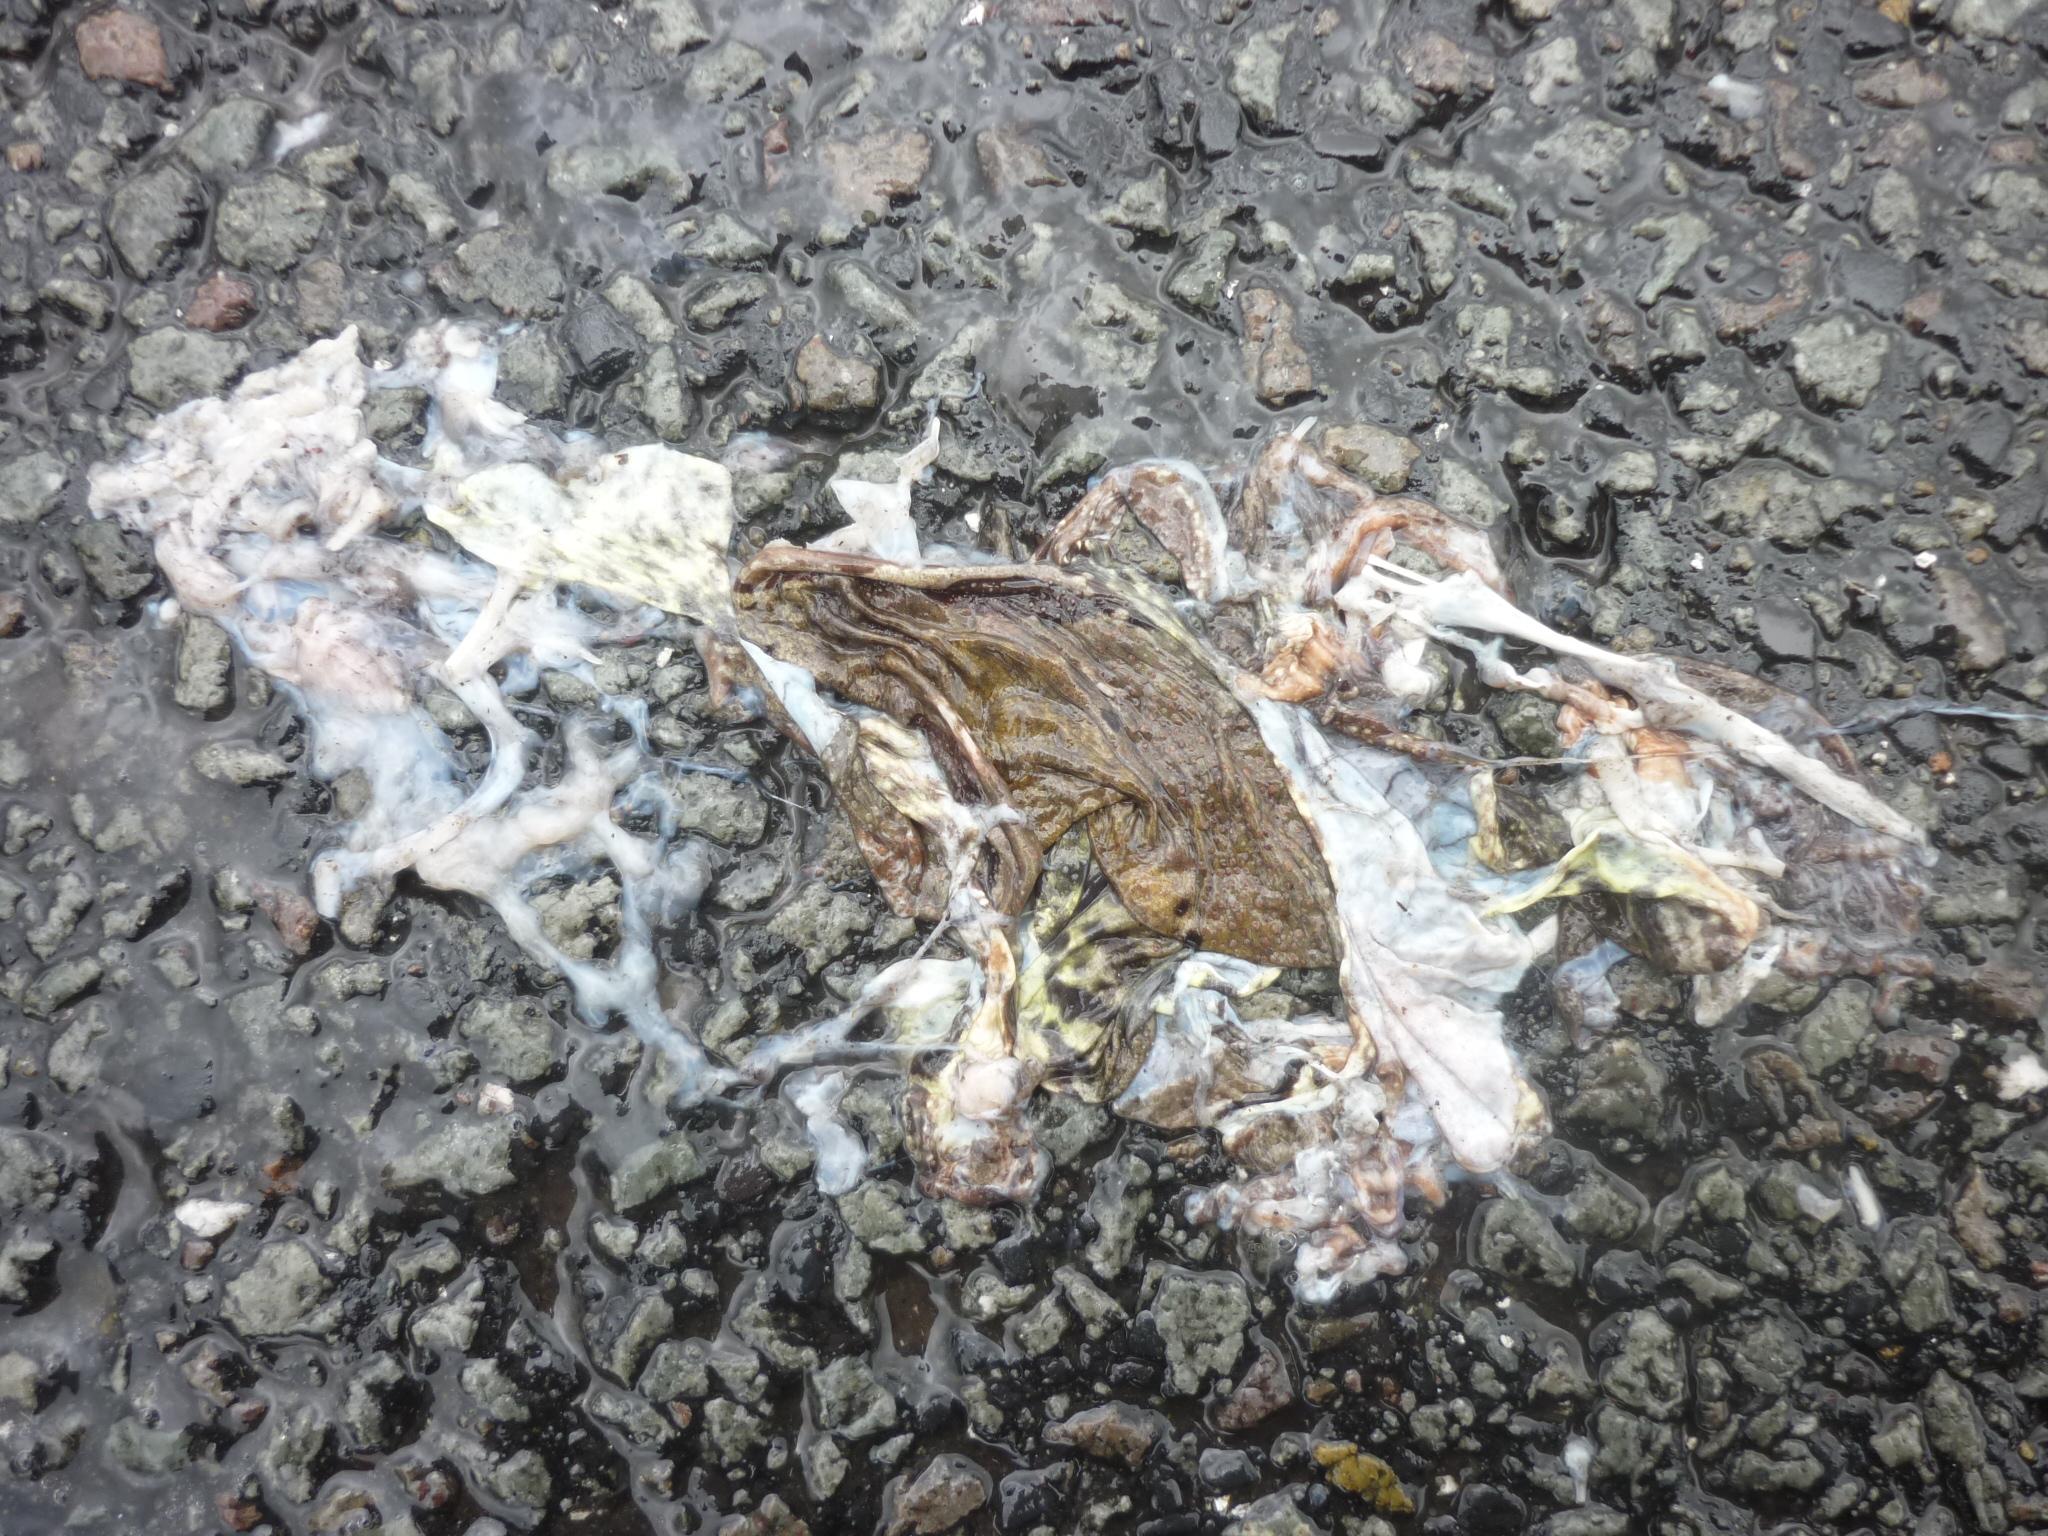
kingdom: Animalia
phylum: Chordata
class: Amphibia
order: Anura
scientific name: Anura
